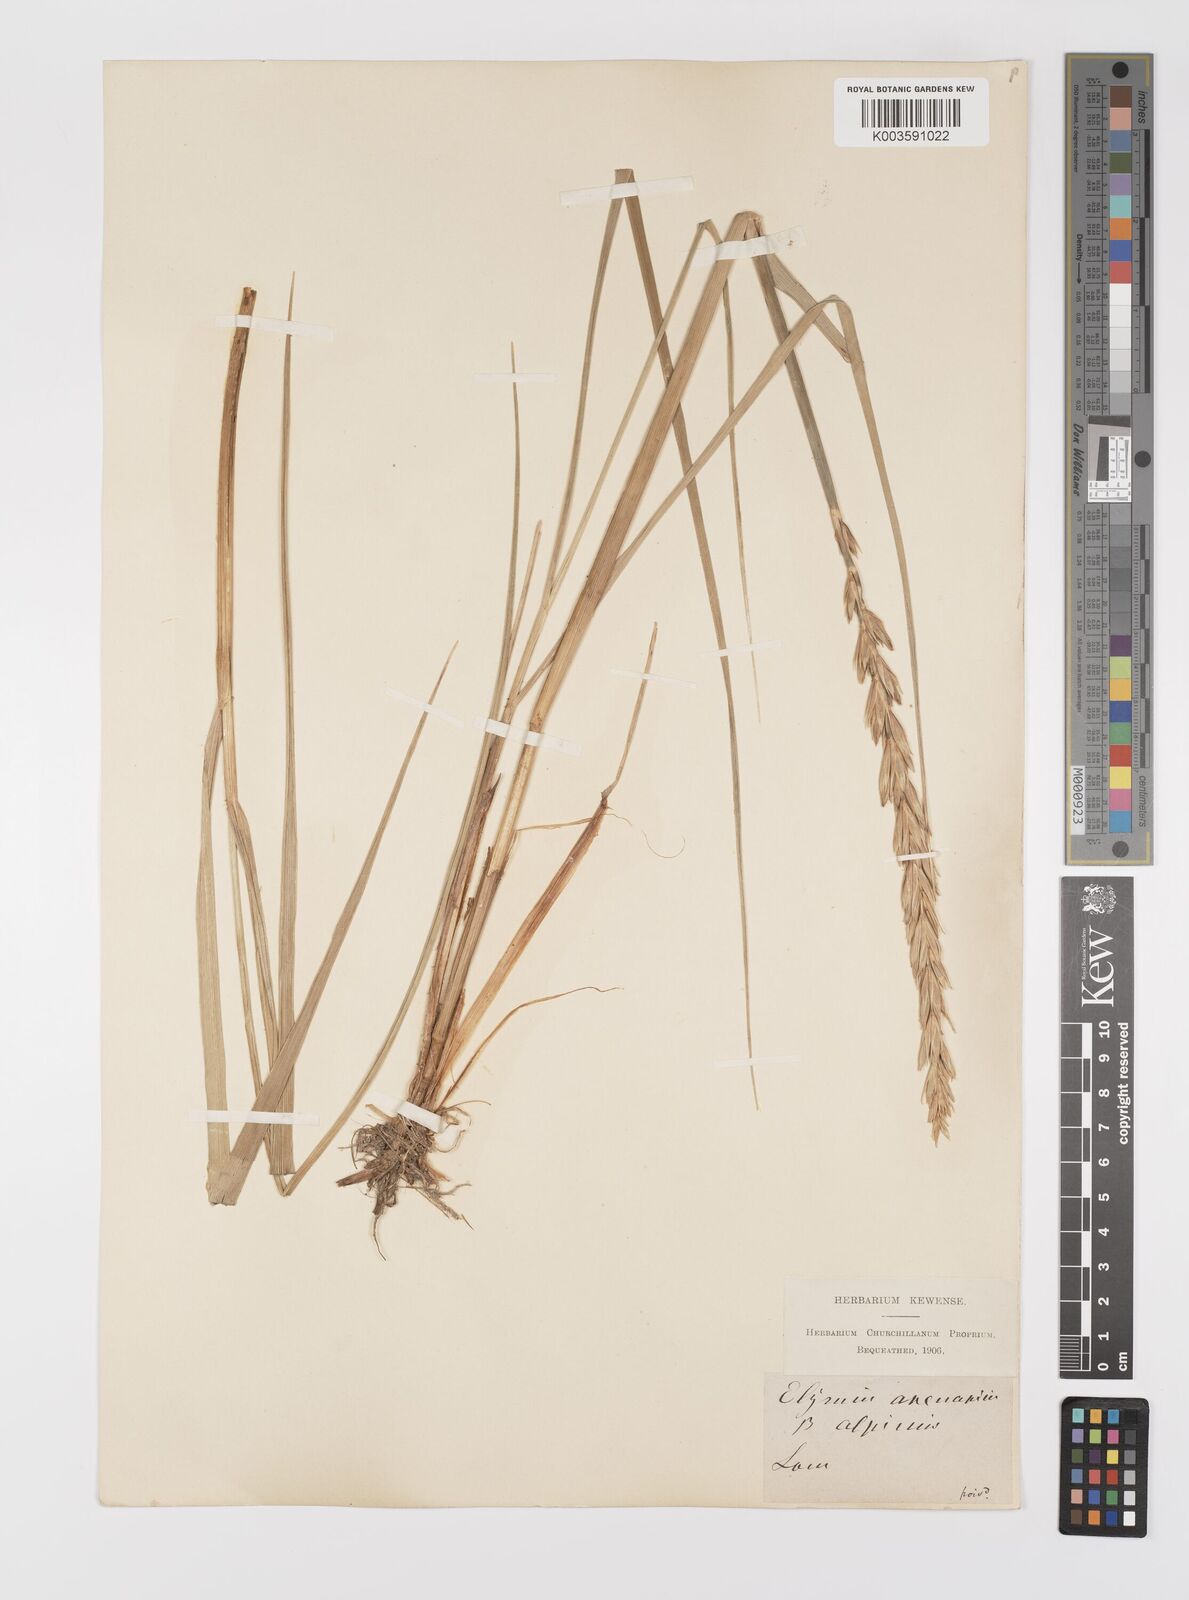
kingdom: Plantae
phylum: Tracheophyta
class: Liliopsida
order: Poales
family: Poaceae
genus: Leymus
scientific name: Leymus arenarius
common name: Lyme-grass
